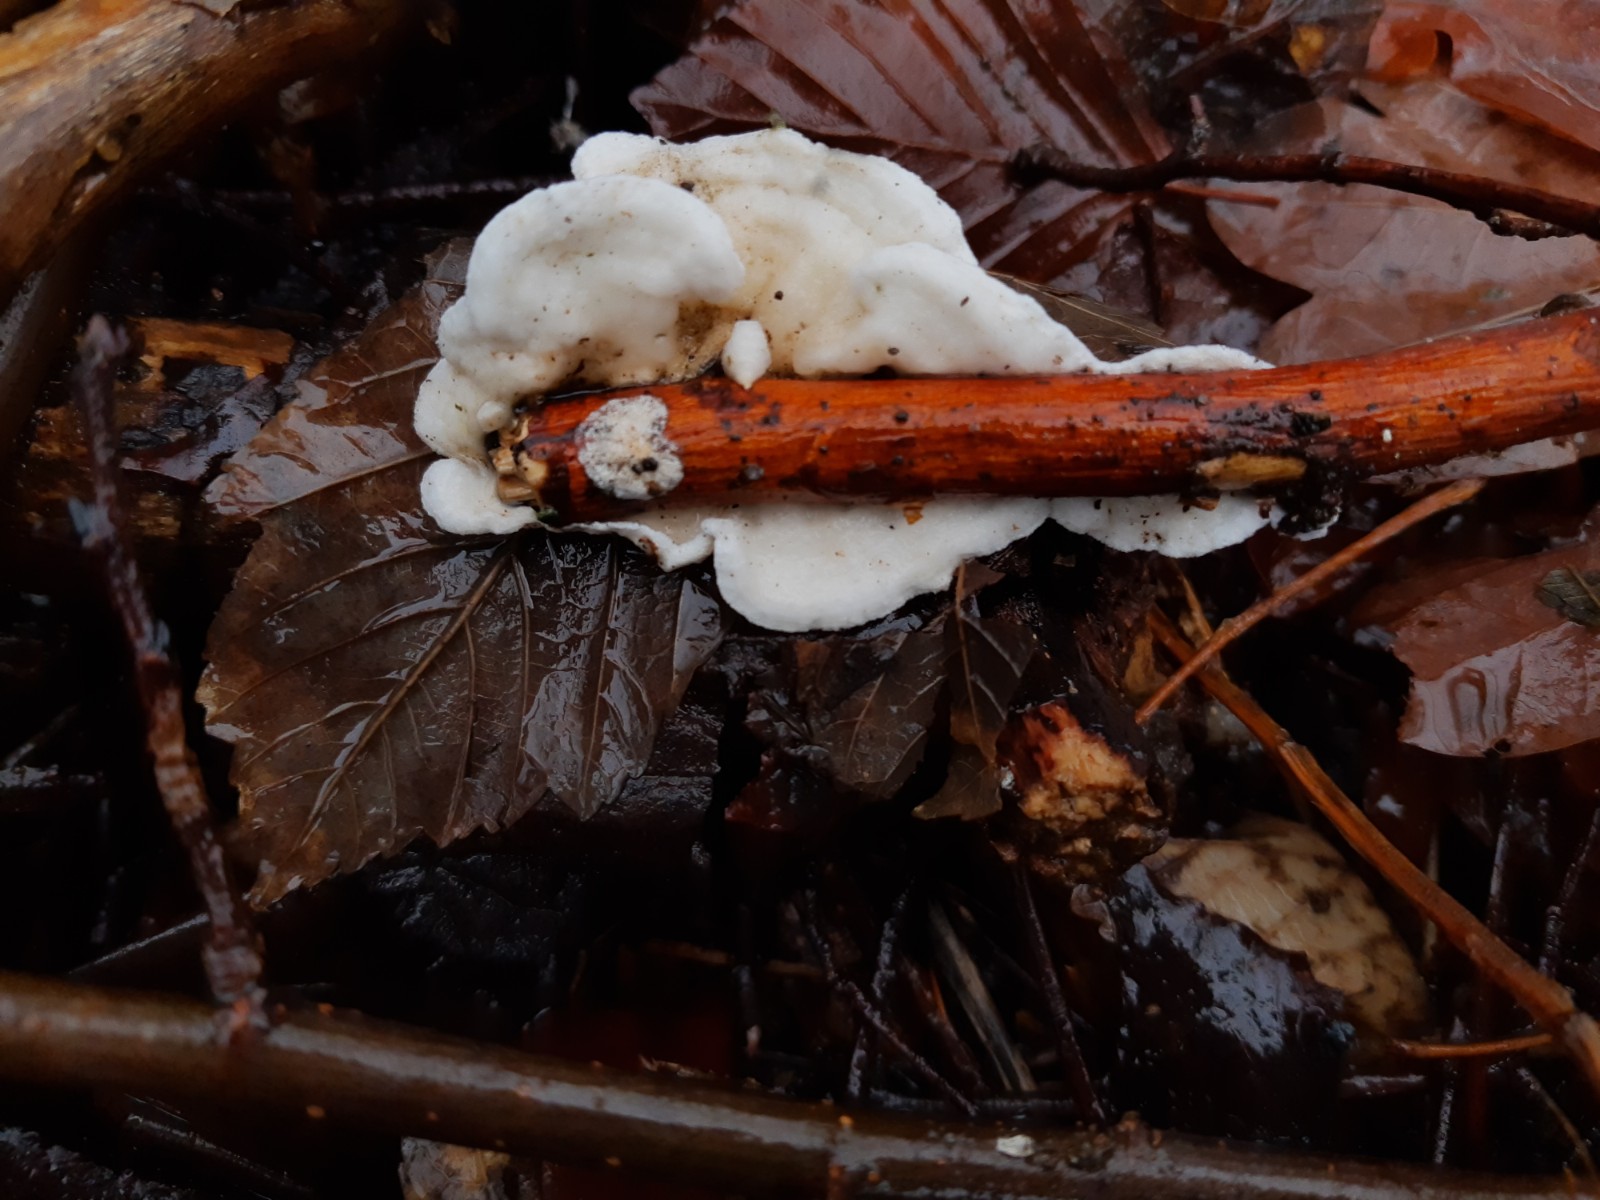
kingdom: Fungi
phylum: Basidiomycota
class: Agaricomycetes
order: Polyporales
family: Irpicaceae
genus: Byssomerulius
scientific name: Byssomerulius corium
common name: læder-åresvamp
